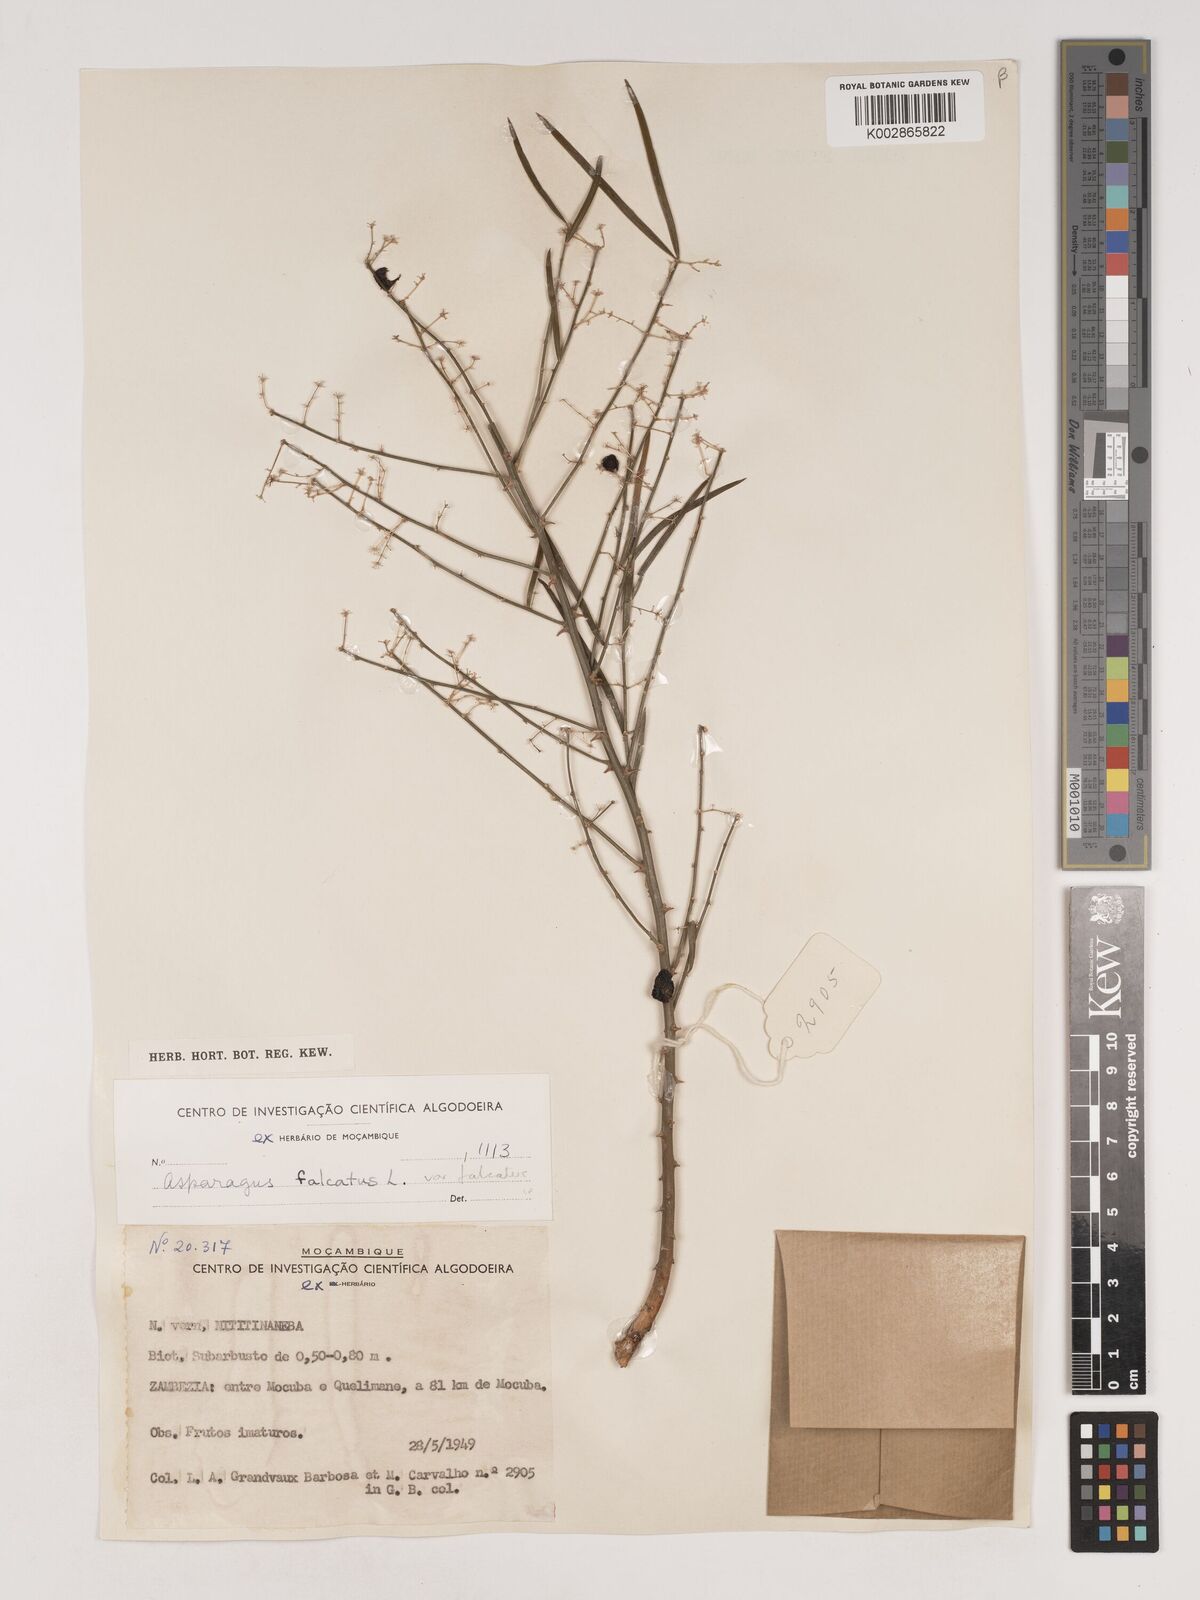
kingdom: Plantae
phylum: Tracheophyta
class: Liliopsida
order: Asparagales
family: Asparagaceae
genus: Asparagus
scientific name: Asparagus falcatus
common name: Asparagus
